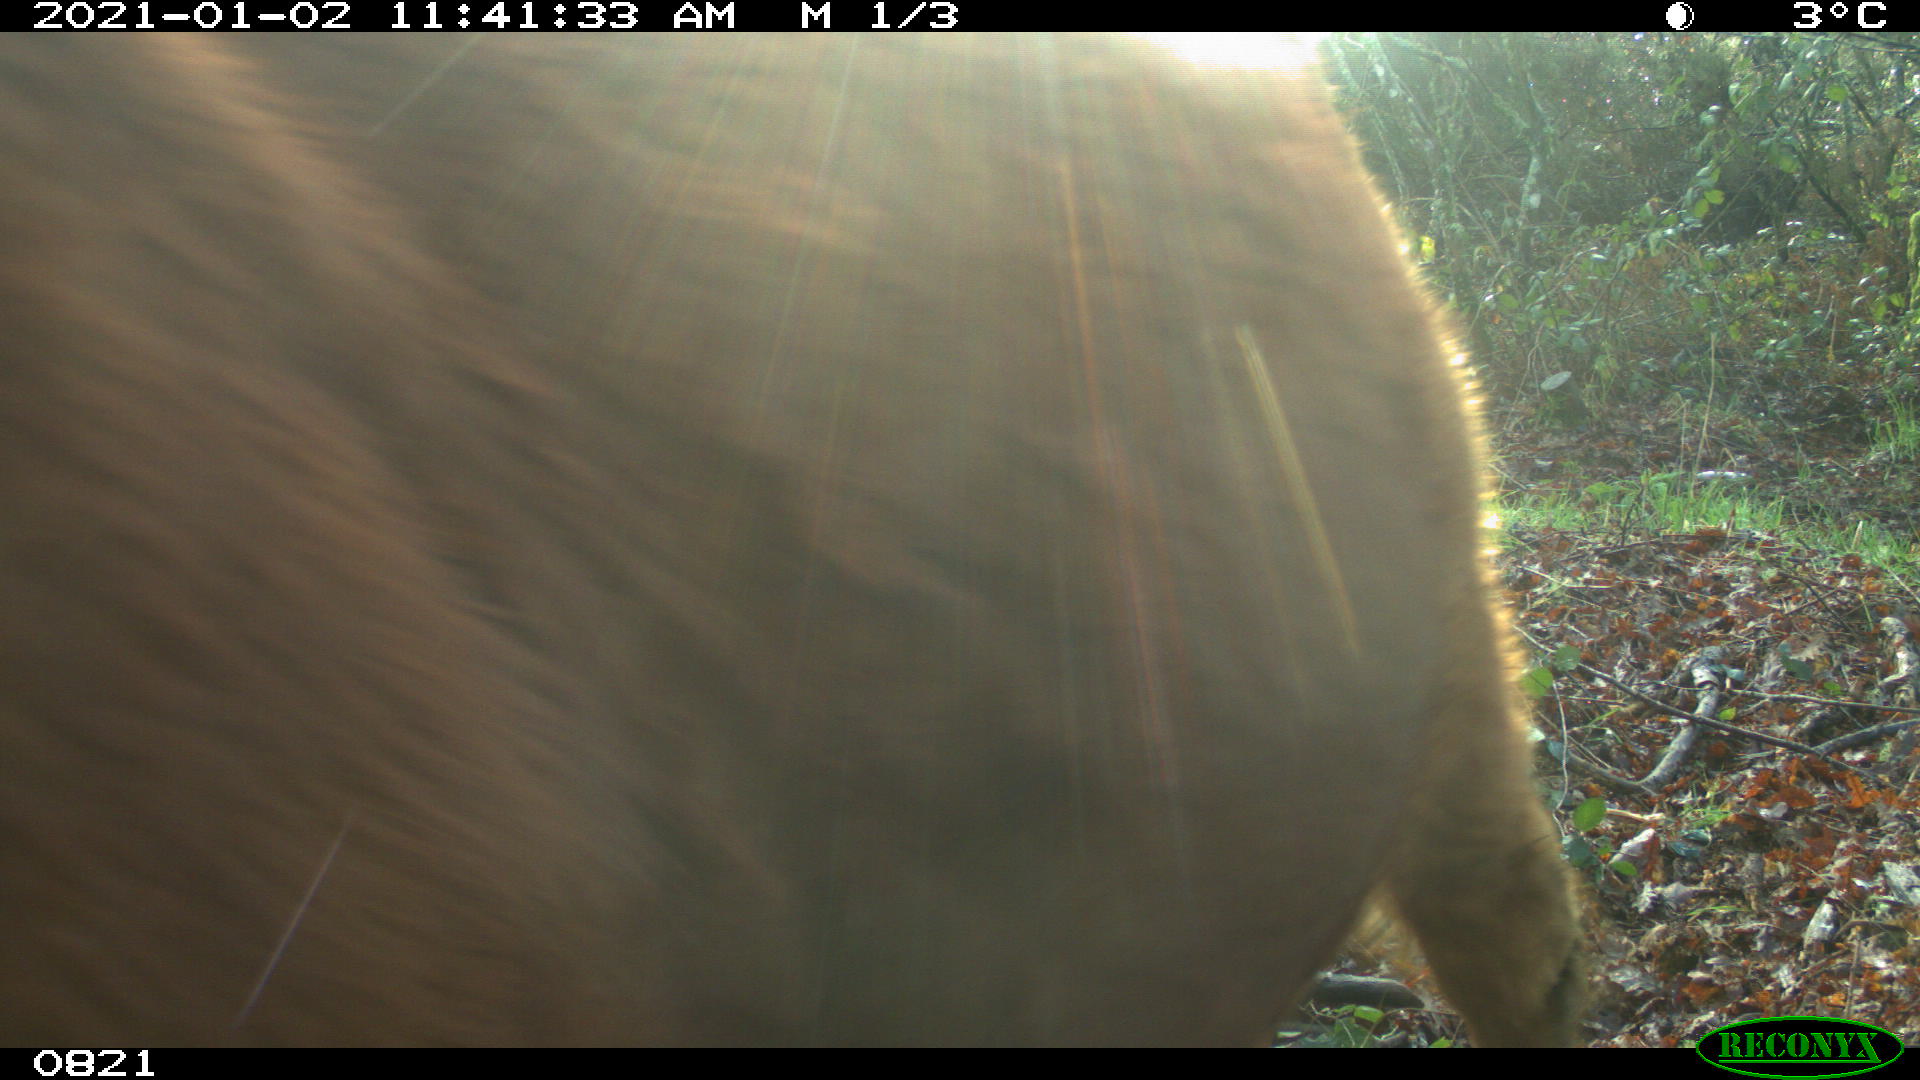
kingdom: Animalia
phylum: Chordata
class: Mammalia
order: Artiodactyla
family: Bovidae
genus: Bos
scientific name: Bos taurus
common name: Domesticated cattle
